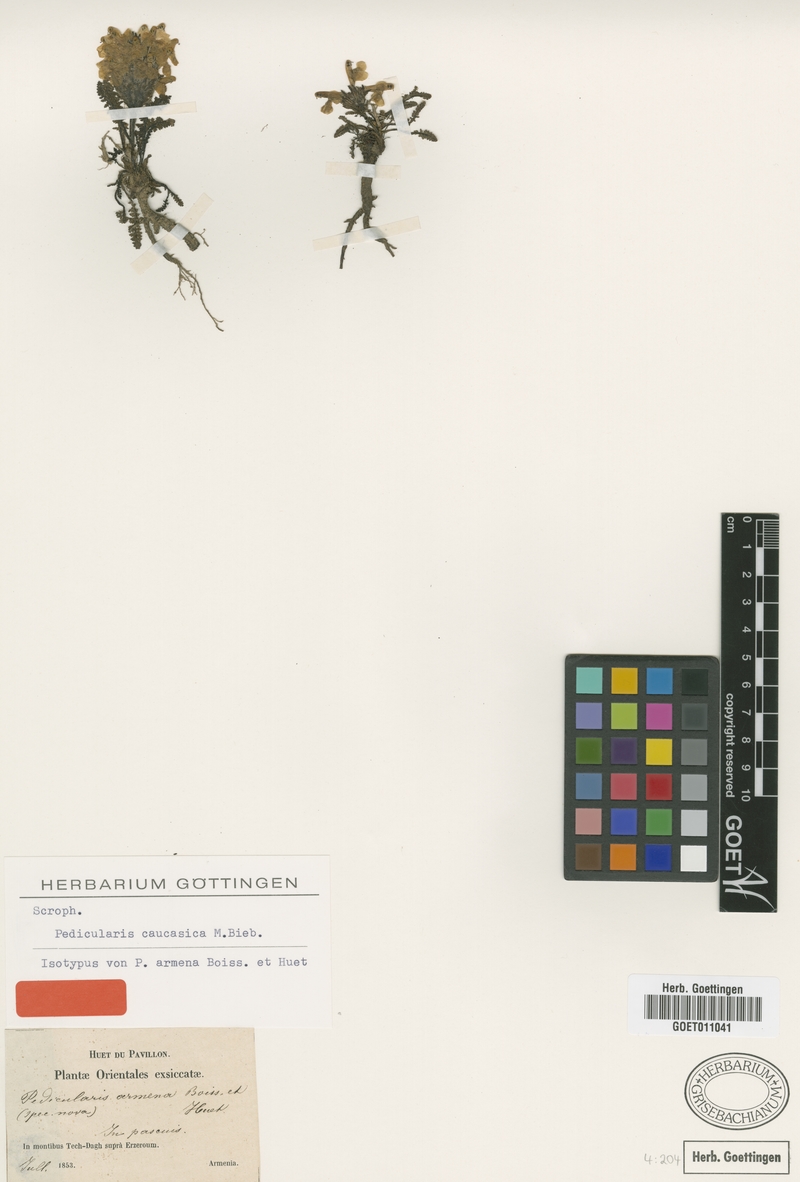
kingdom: Plantae
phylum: Tracheophyta
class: Magnoliopsida
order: Lamiales
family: Orobanchaceae
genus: Pedicularis
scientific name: Pedicularis caucasica
